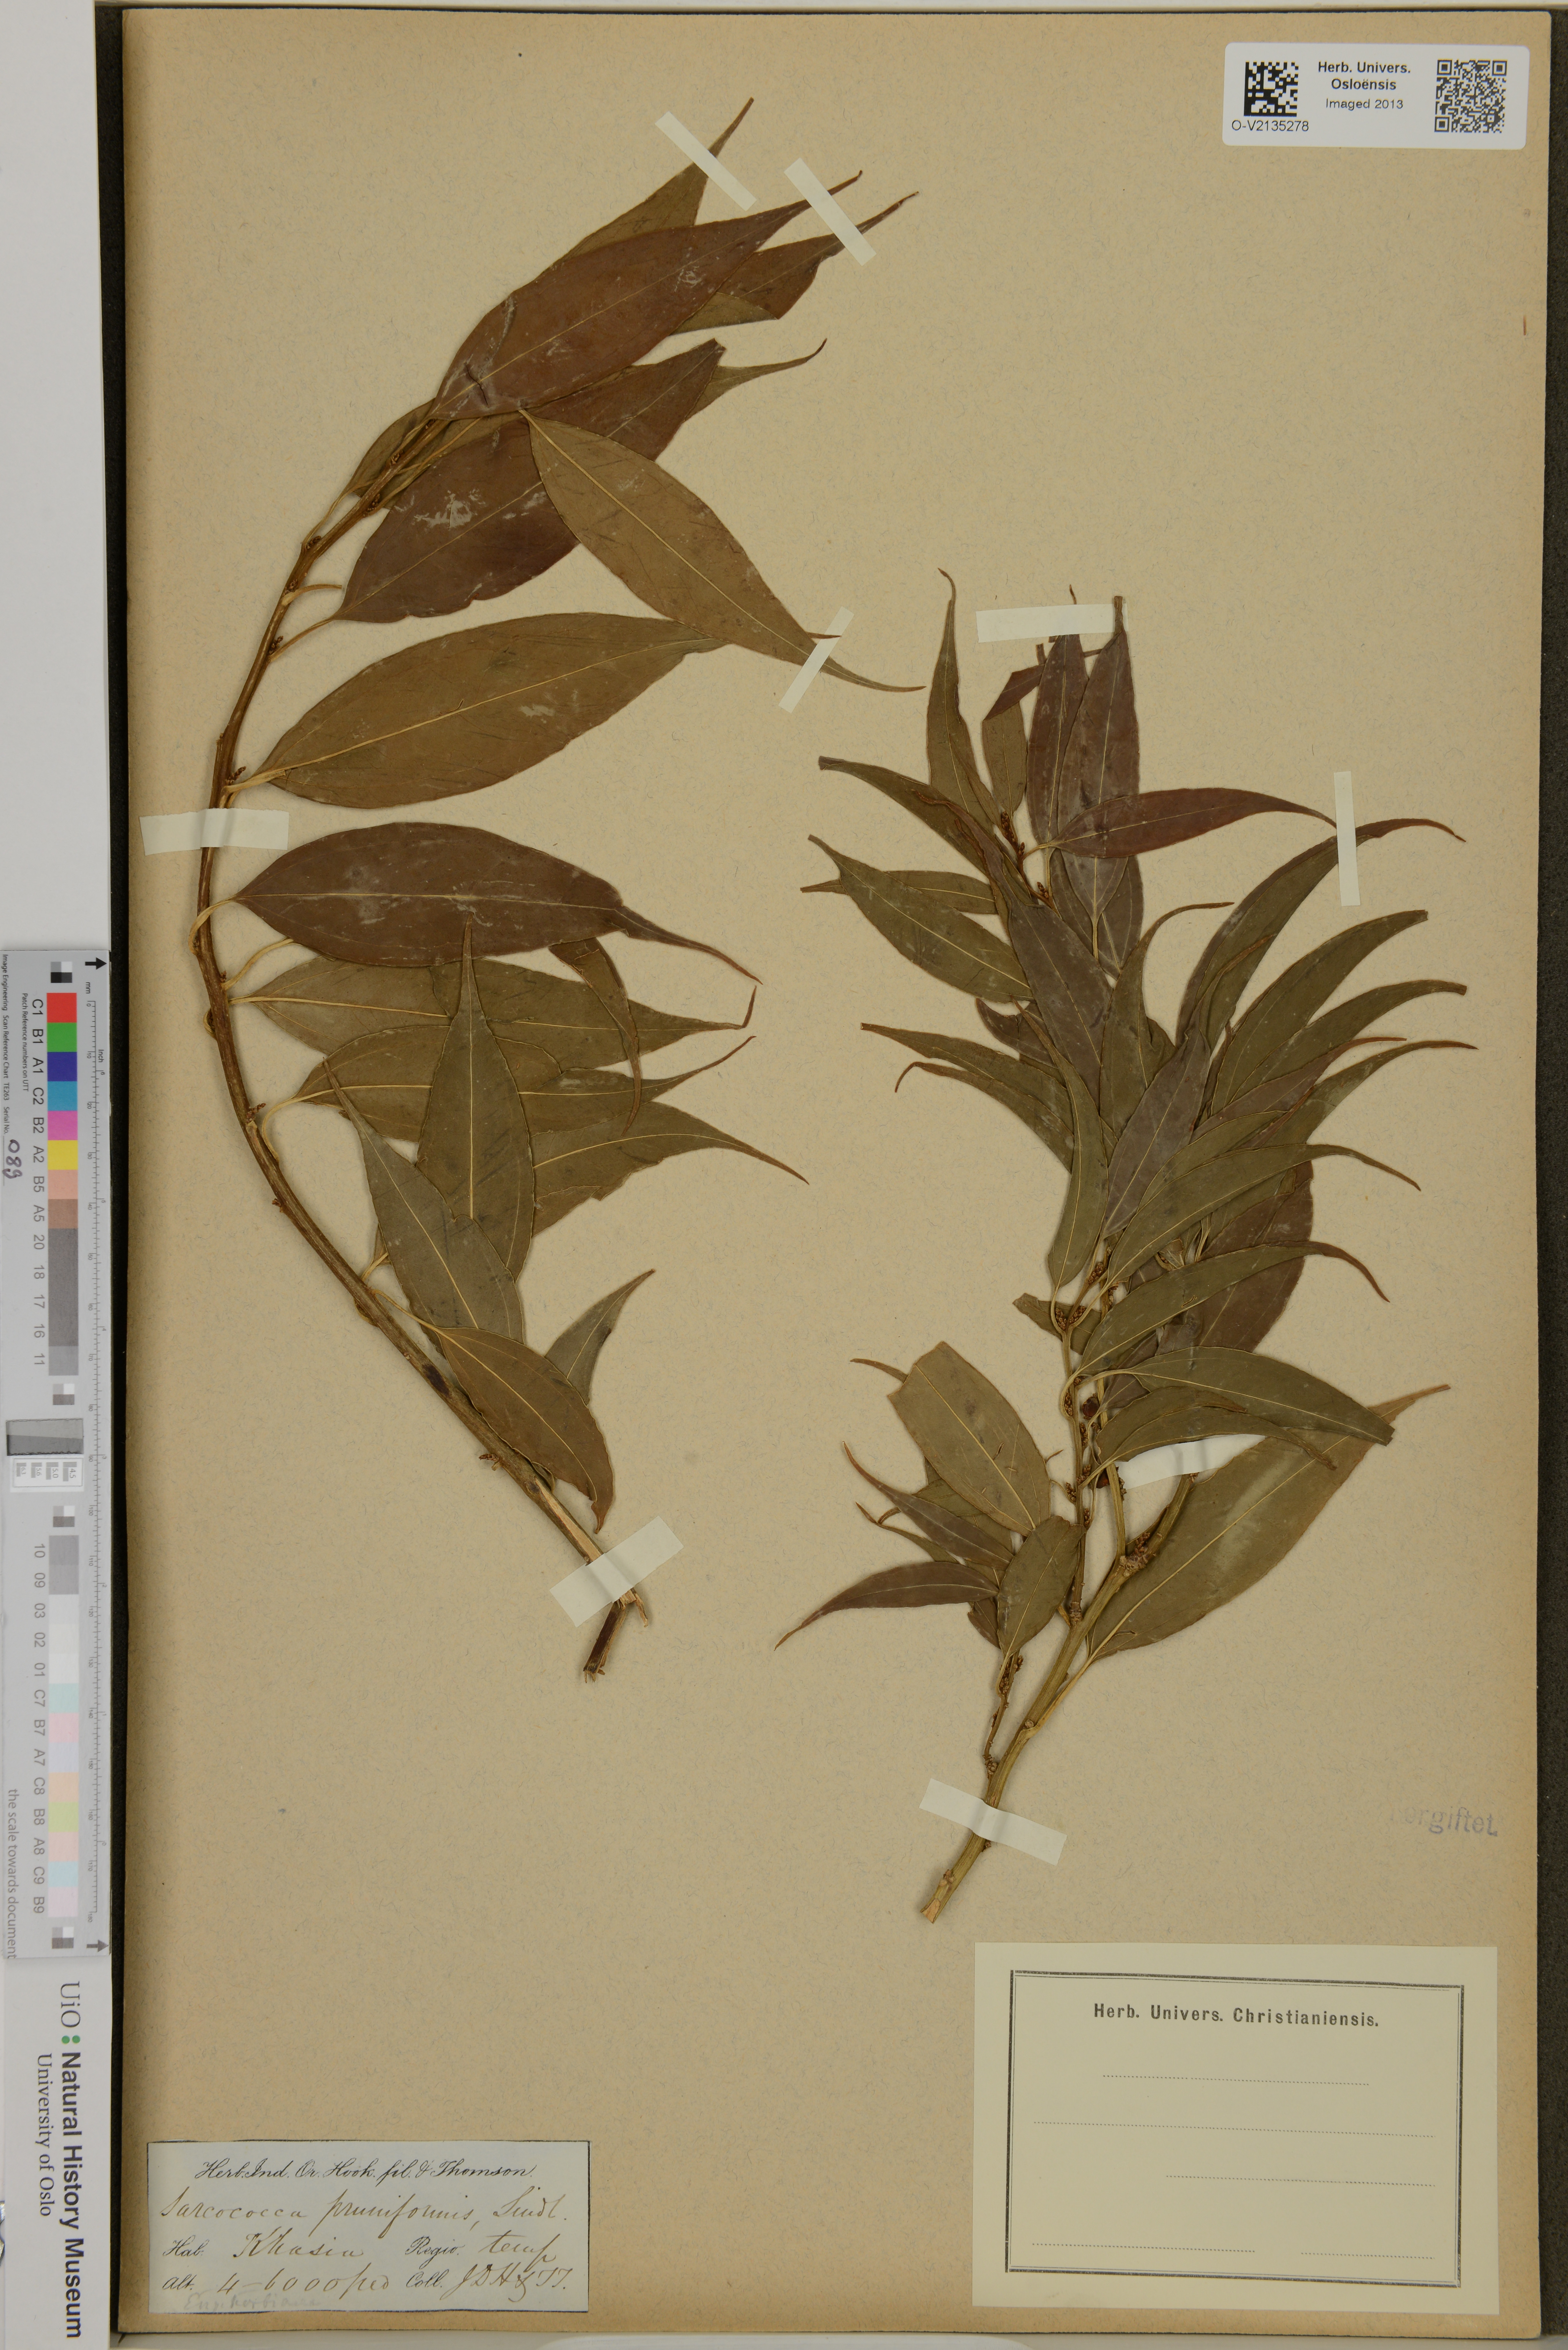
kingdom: Plantae
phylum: Tracheophyta
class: Magnoliopsida
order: Buxales
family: Buxaceae
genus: Sarcococca
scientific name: Sarcococca coriacea
